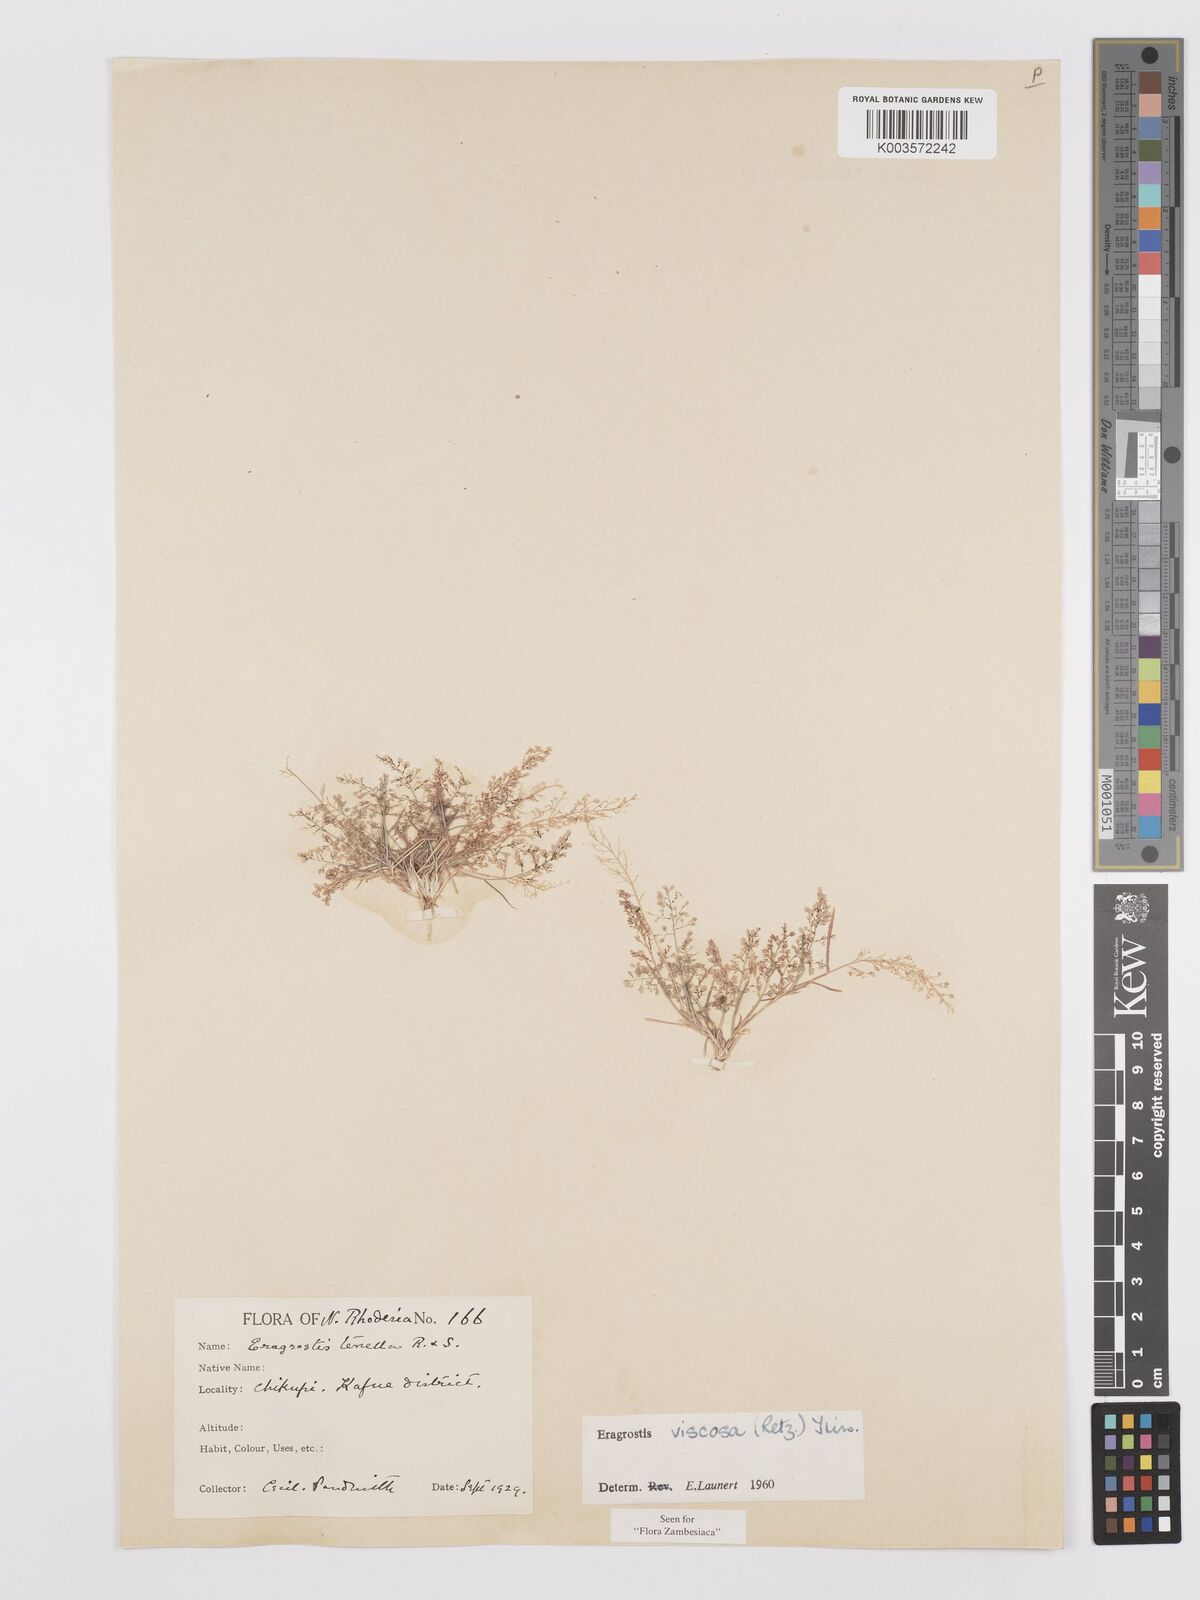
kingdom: Plantae
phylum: Tracheophyta
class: Liliopsida
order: Poales
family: Poaceae
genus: Eragrostis
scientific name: Eragrostis
